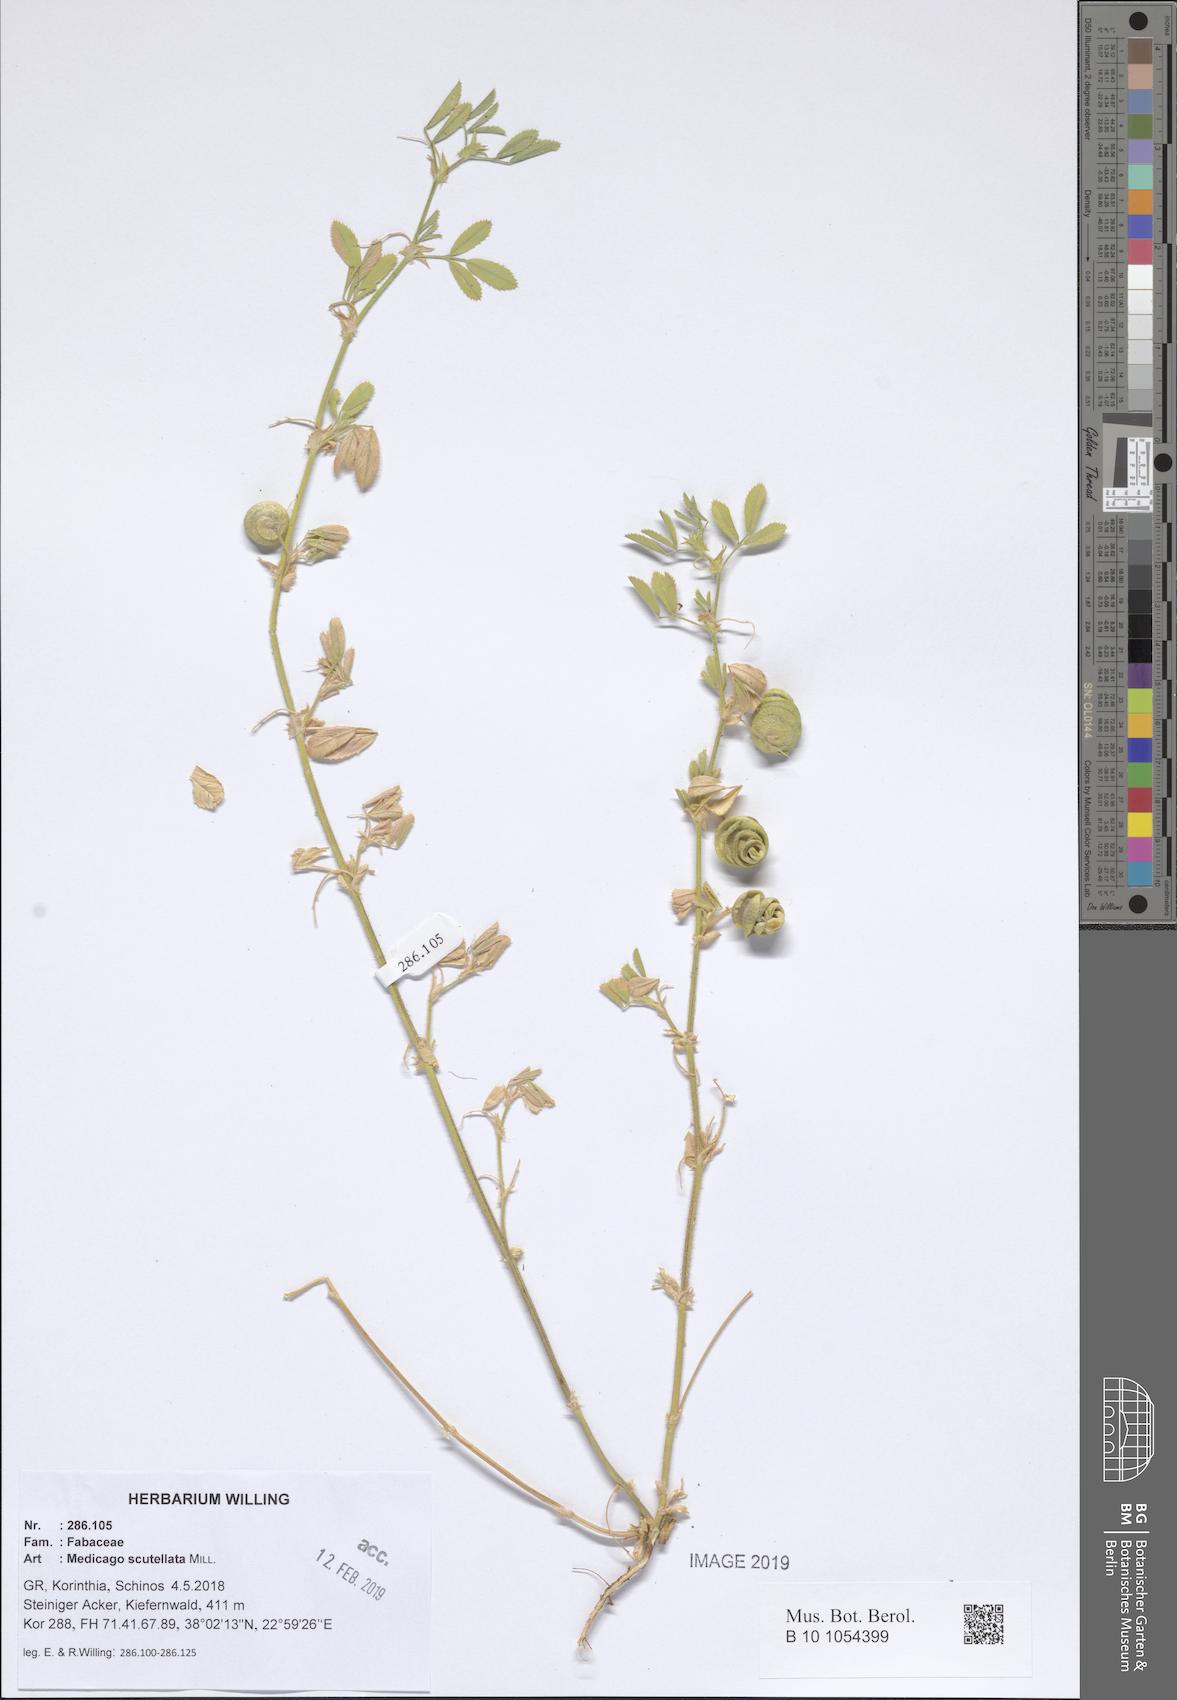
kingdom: Plantae
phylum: Tracheophyta
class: Magnoliopsida
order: Fabales
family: Fabaceae
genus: Medicago
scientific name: Medicago scutellata
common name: Snail medick
